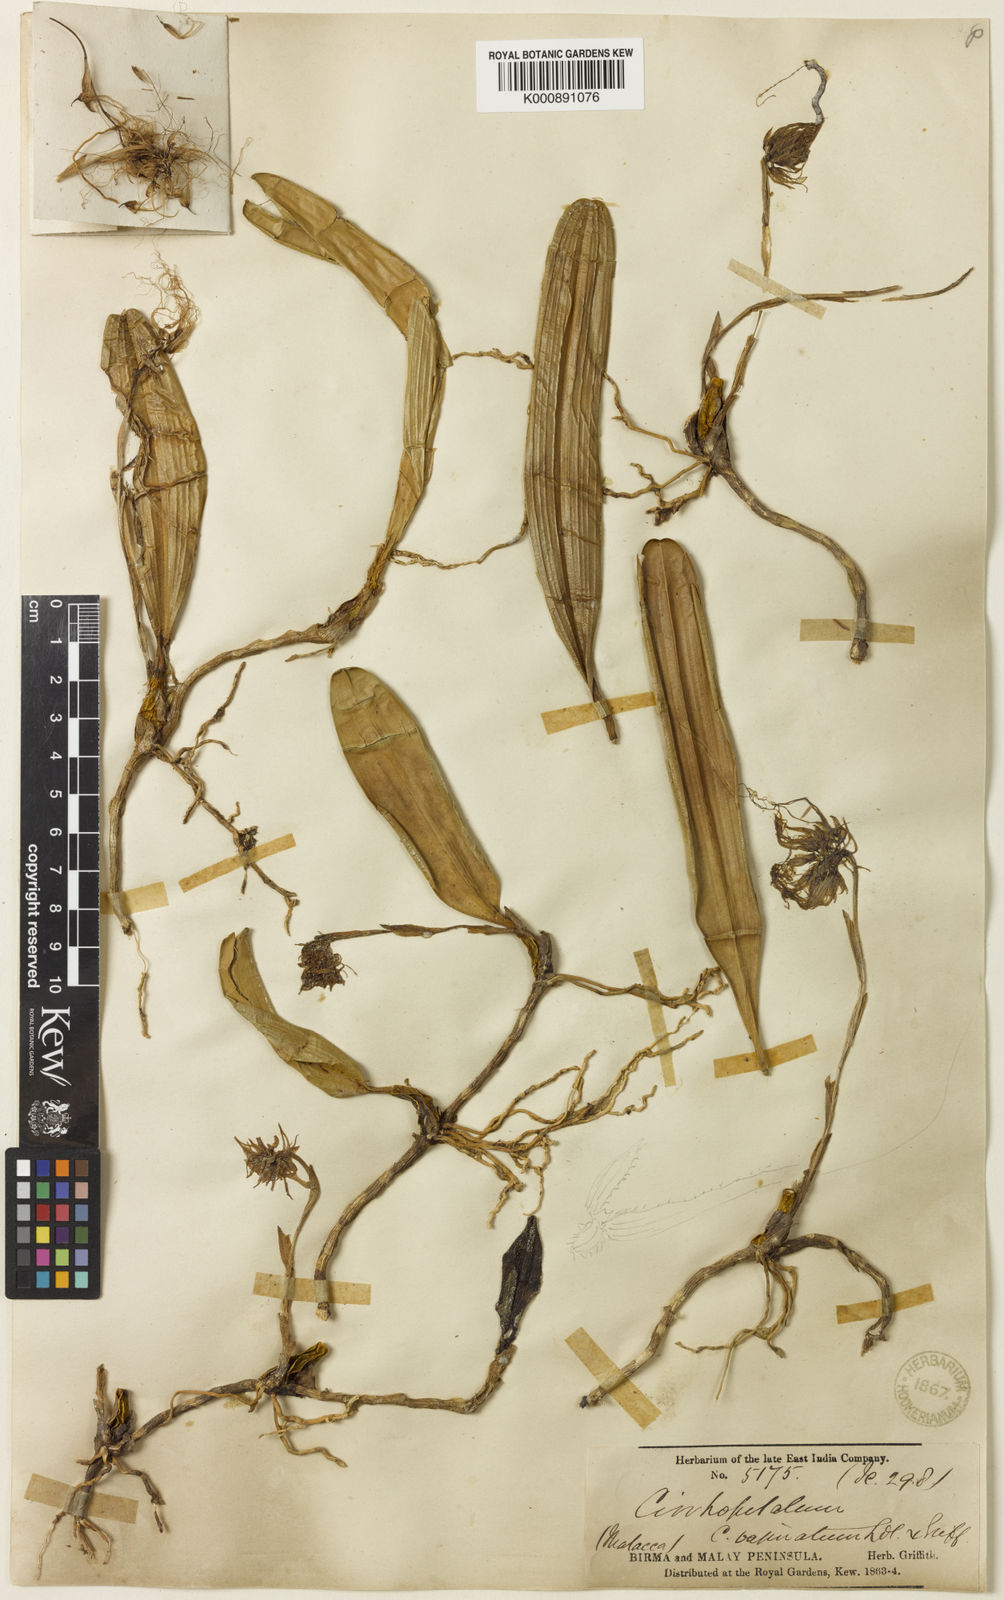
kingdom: Plantae
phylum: Tracheophyta
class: Liliopsida
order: Asparagales
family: Orchidaceae
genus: Bulbophyllum
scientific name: Bulbophyllum vaginatum
